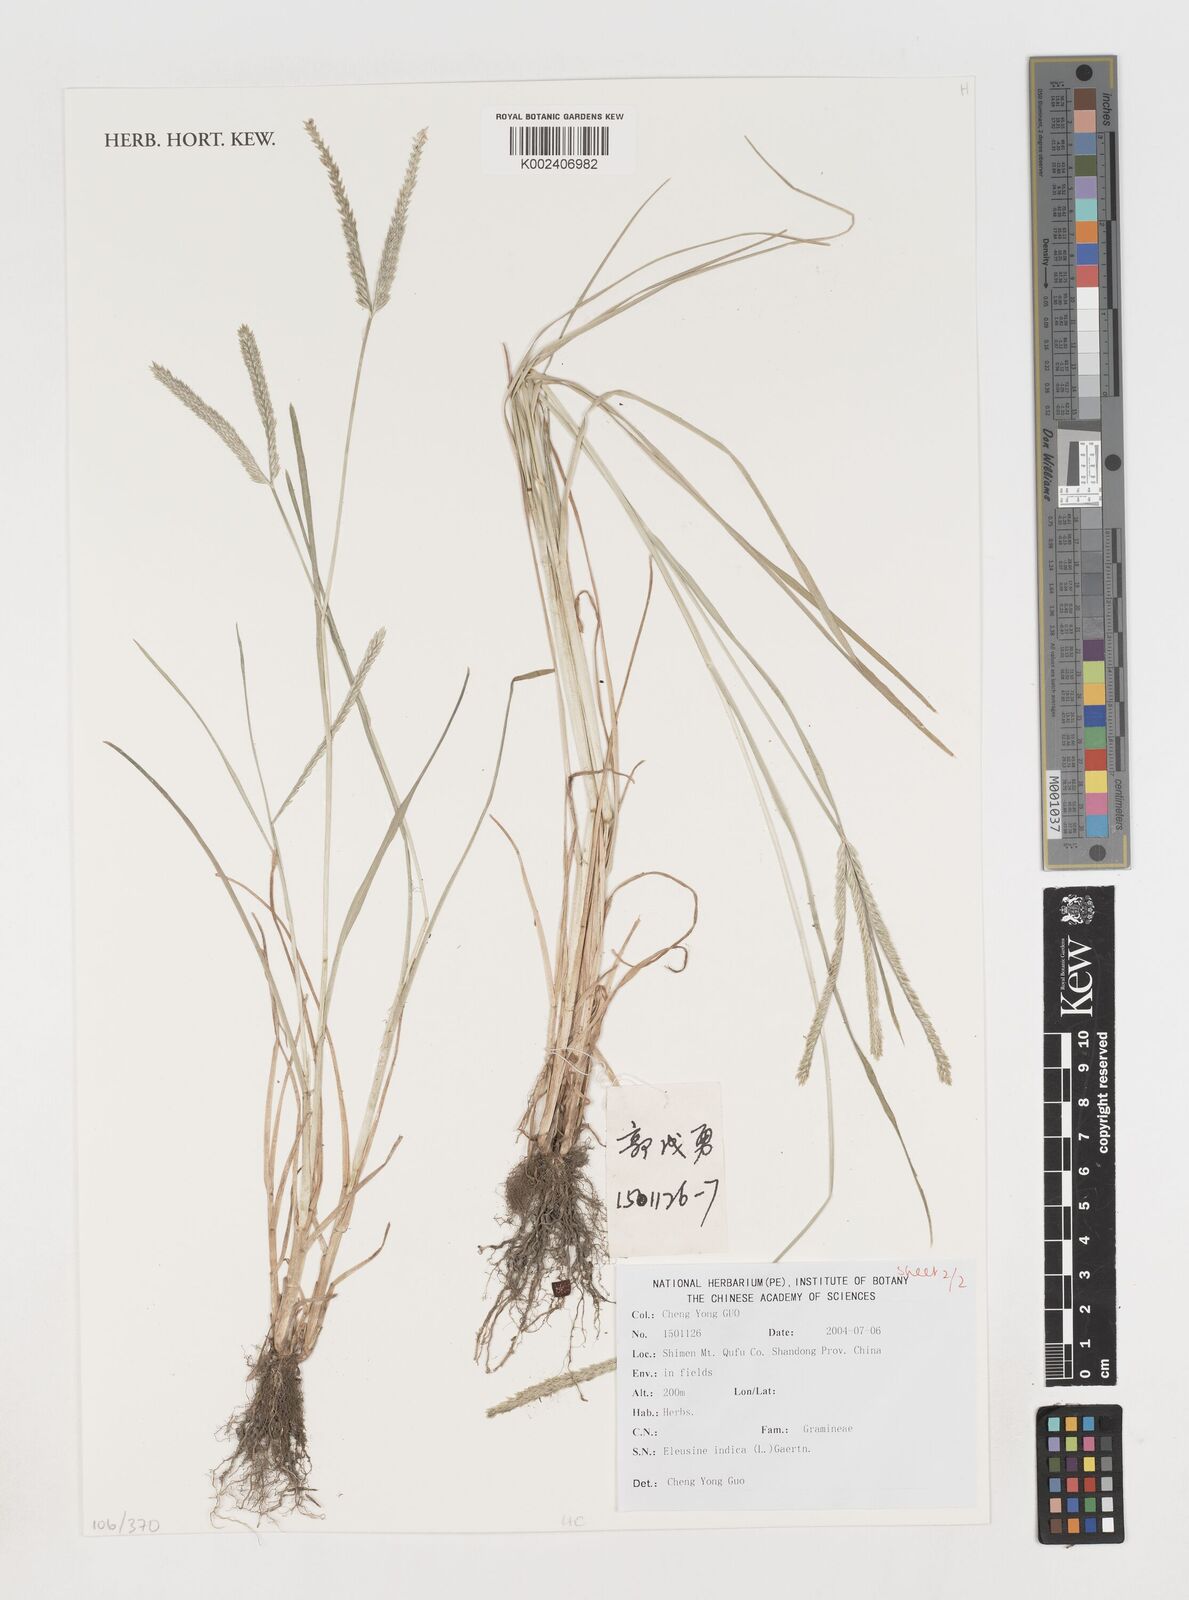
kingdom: Plantae
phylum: Tracheophyta
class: Liliopsida
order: Poales
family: Poaceae
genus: Eleusine
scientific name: Eleusine indica
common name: Yard-grass
